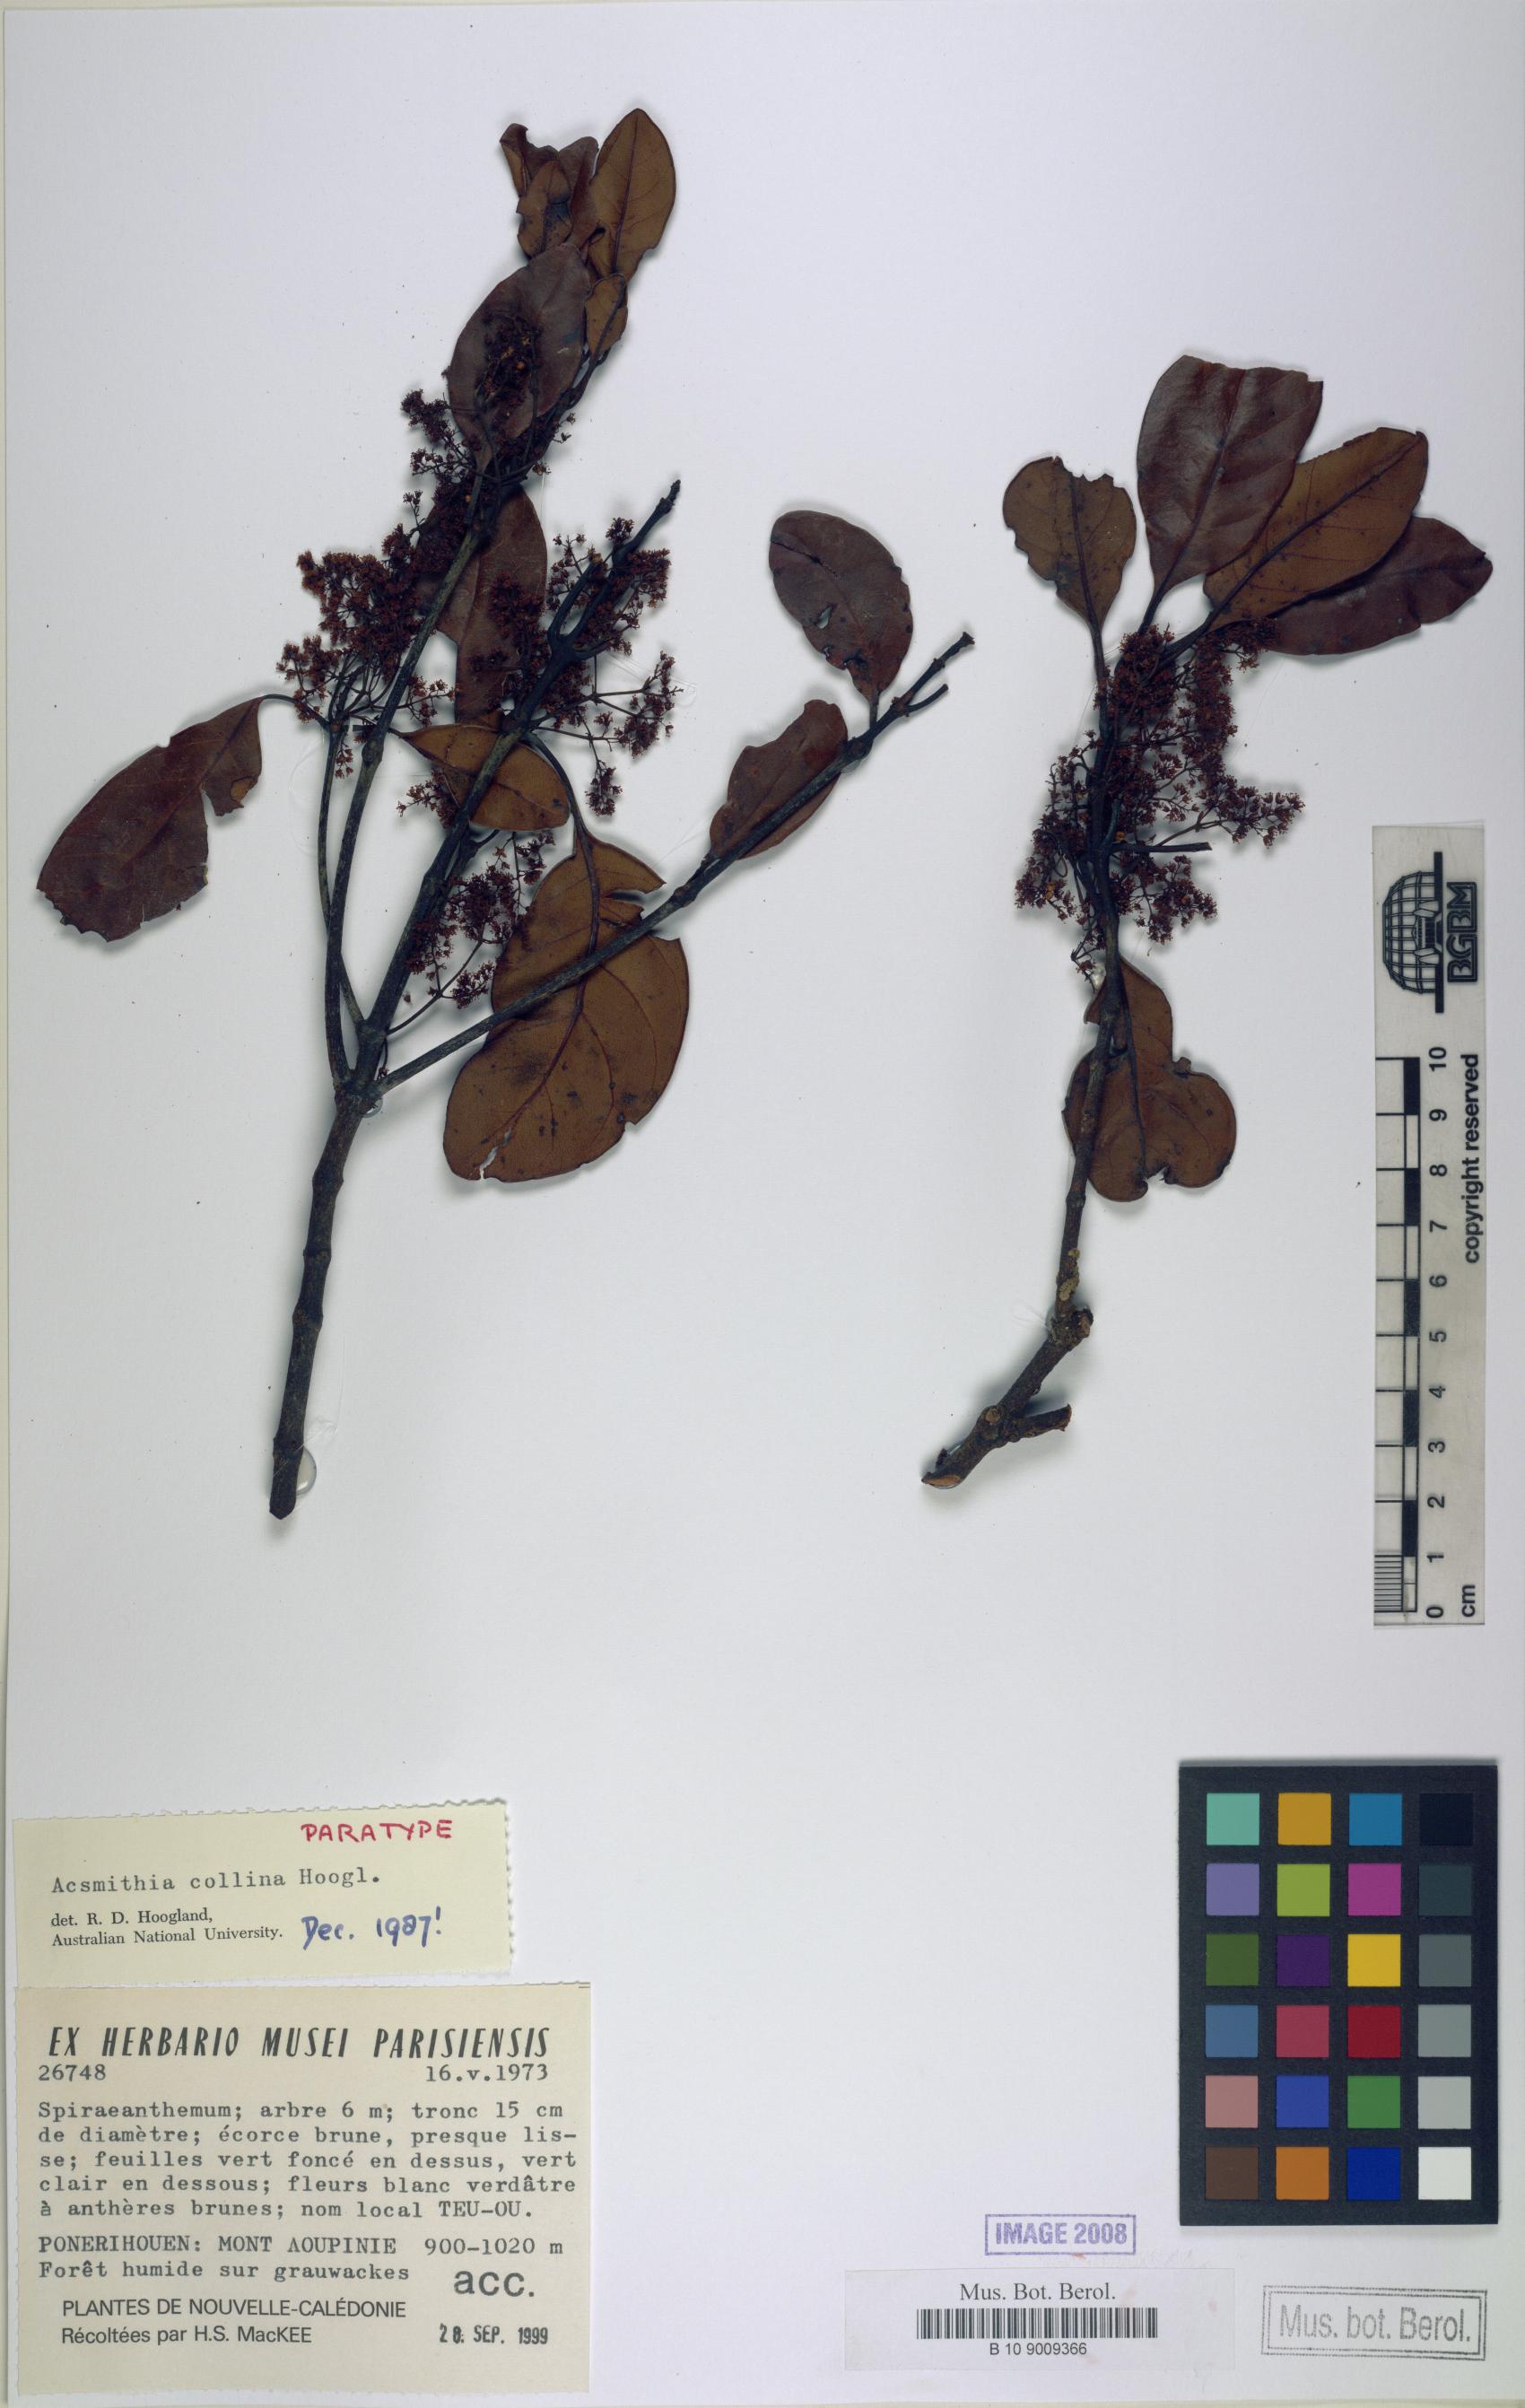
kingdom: Plantae
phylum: Tracheophyta
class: Magnoliopsida
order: Oxalidales
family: Cunoniaceae
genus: Spiraeanthemum
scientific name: Spiraeanthemum collinum
